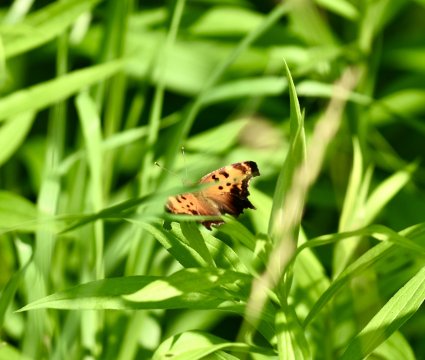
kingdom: Animalia
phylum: Arthropoda
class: Insecta
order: Lepidoptera
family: Nymphalidae
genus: Polygonia
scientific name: Polygonia progne
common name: Gray Comma
